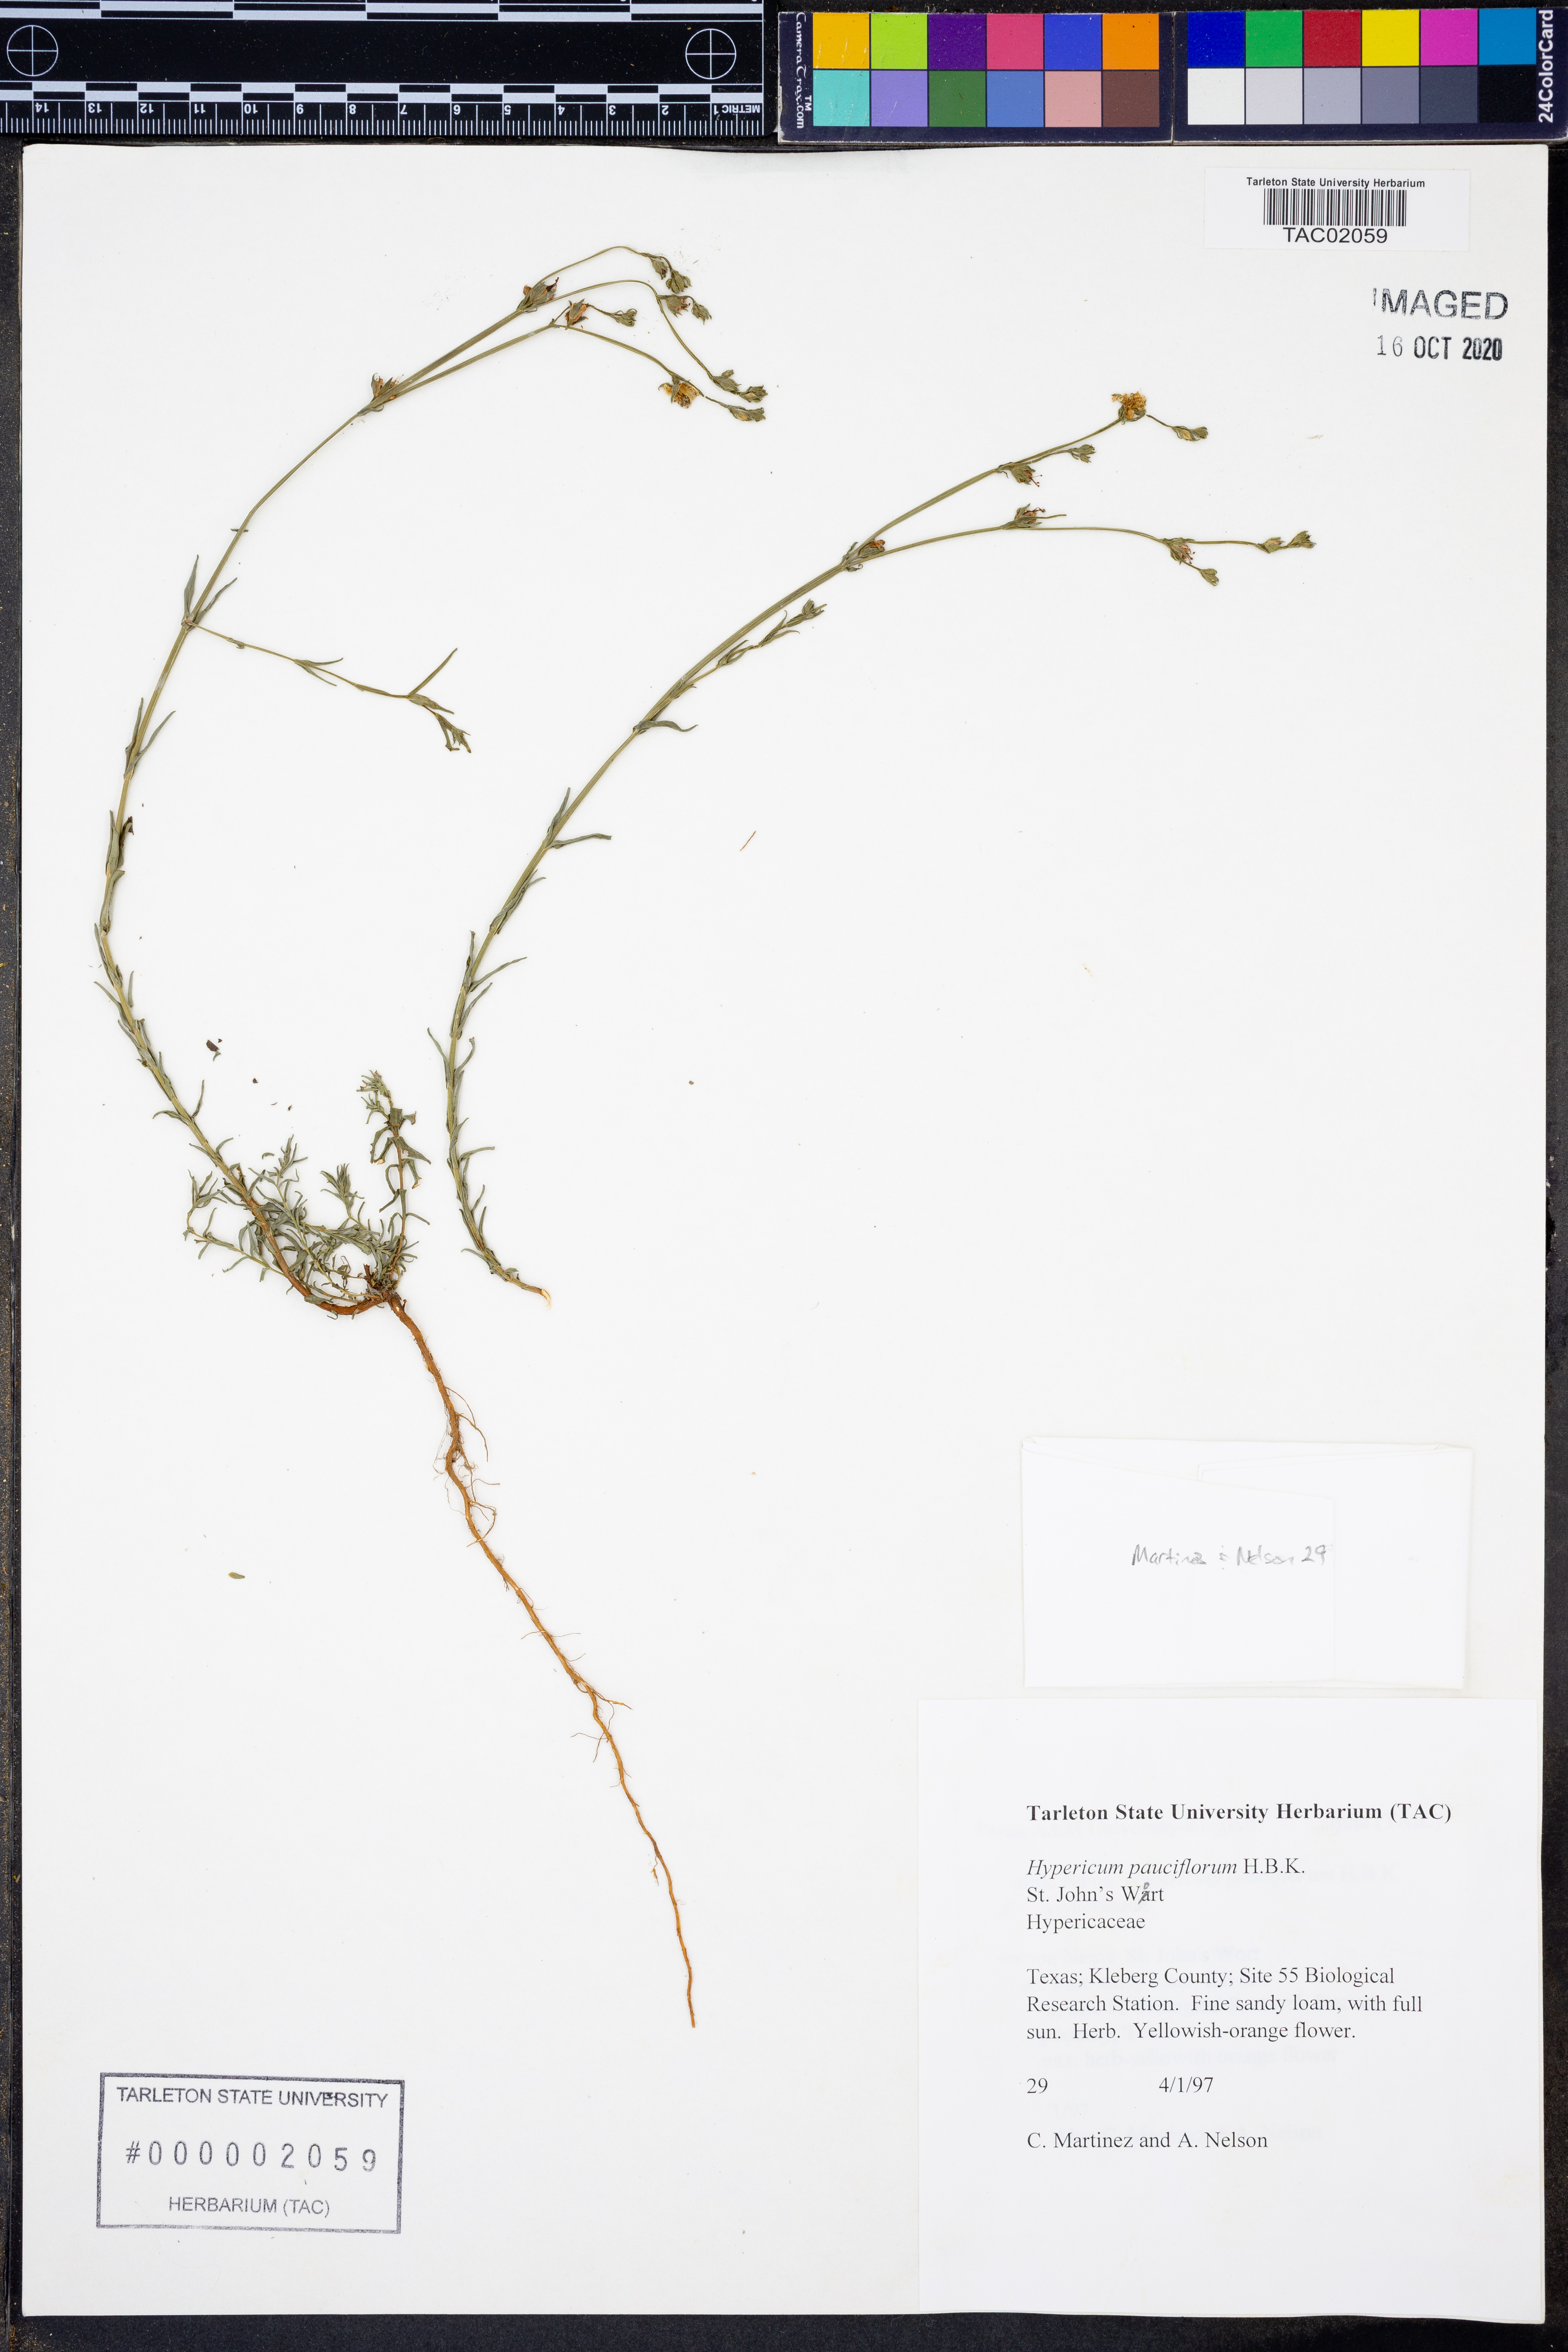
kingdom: Plantae
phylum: Tracheophyta
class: Magnoliopsida
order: Malpighiales
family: Hypericaceae
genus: Hypericum
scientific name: Hypericum pauciflorum
